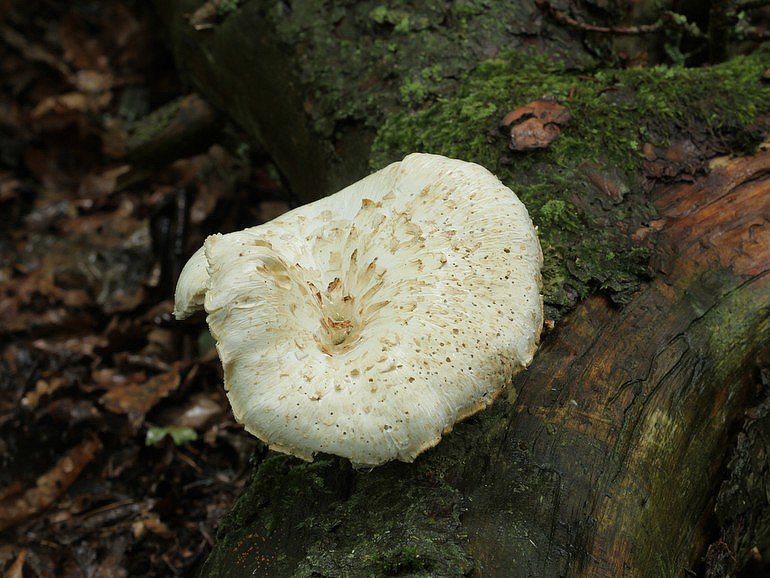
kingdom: Fungi
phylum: Basidiomycota
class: Agaricomycetes
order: Gloeophyllales
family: Gloeophyllaceae
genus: Neolentinus
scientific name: Neolentinus lepideus
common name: skællet sejhat
